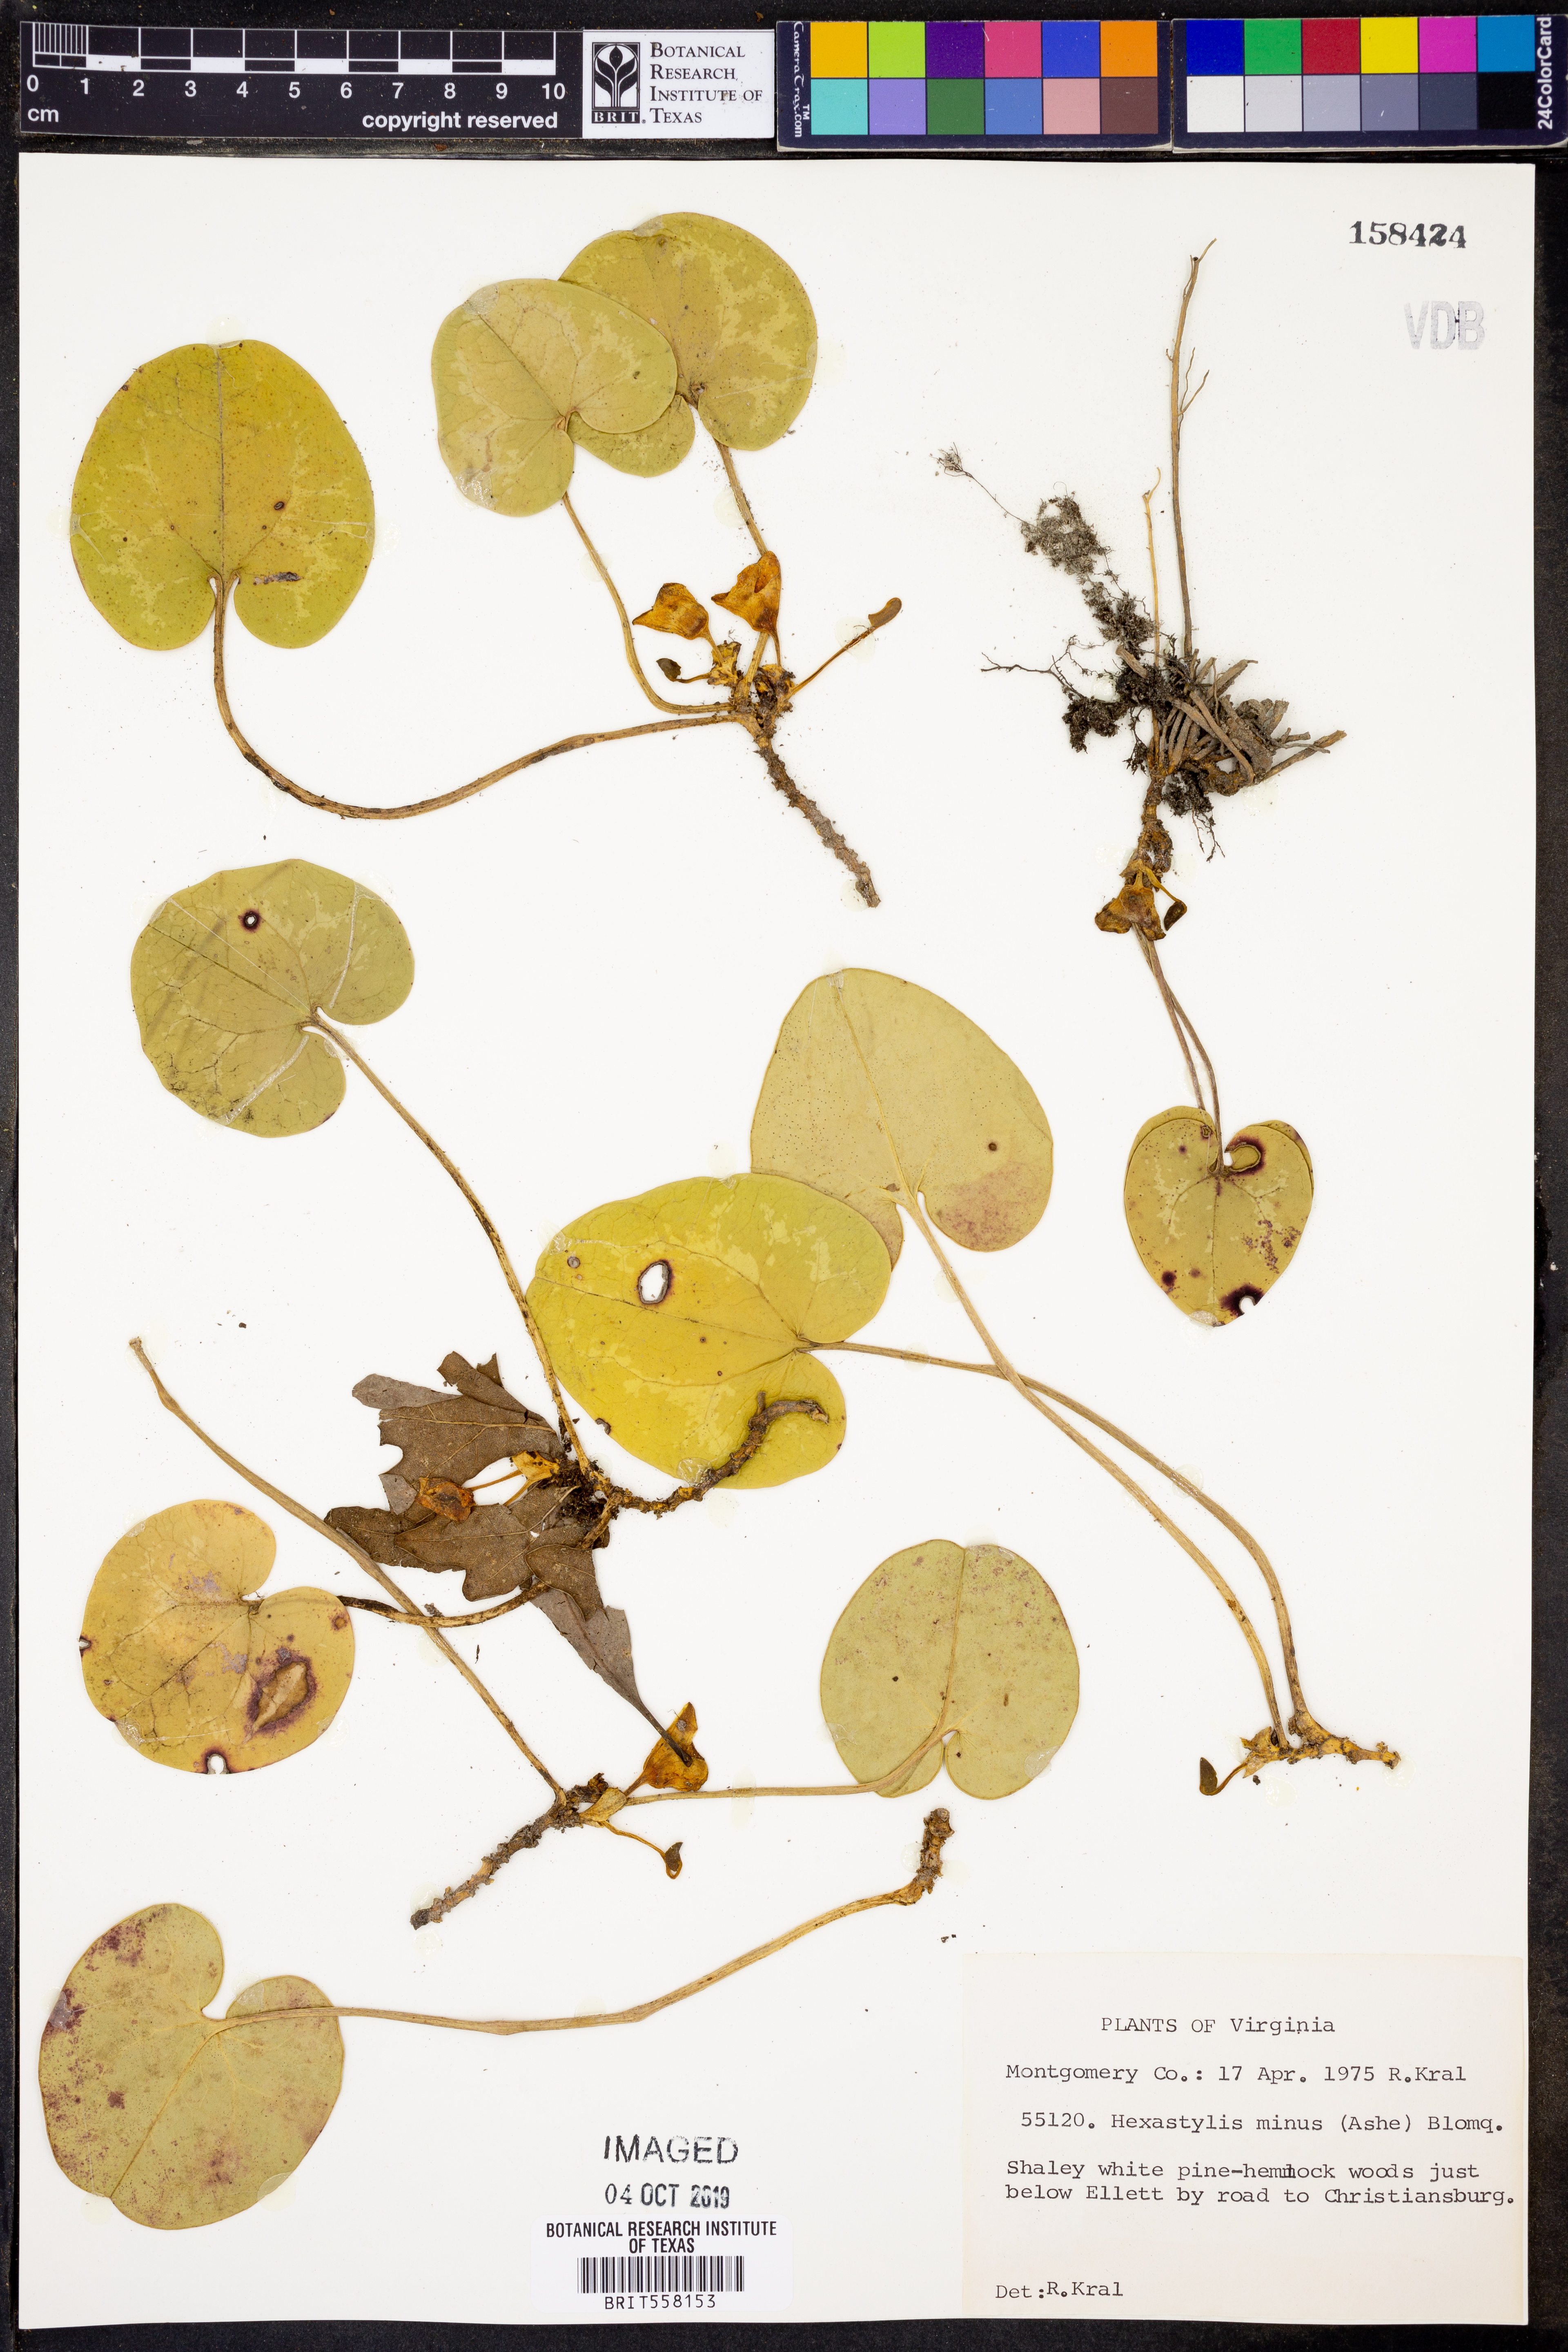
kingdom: Plantae
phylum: Tracheophyta
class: Magnoliopsida
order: Piperales
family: Aristolochiaceae
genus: Hexastylis
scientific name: Hexastylis minor
